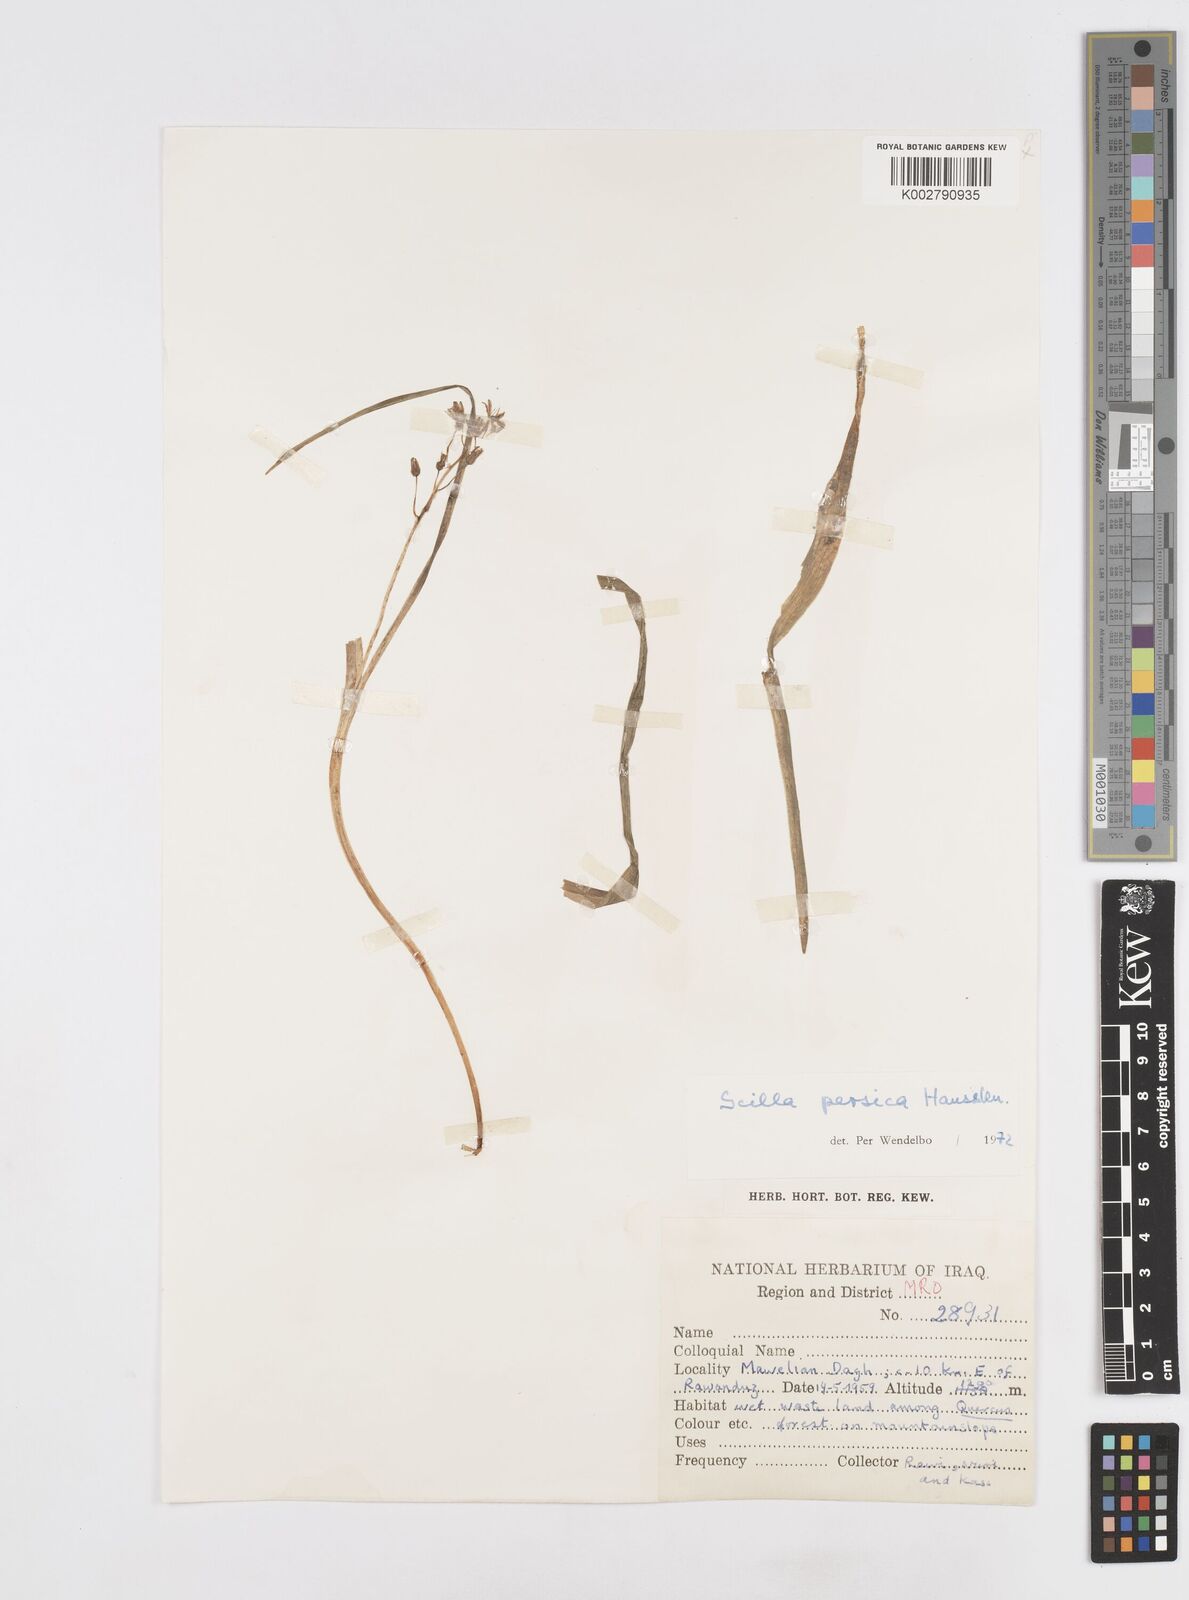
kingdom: Plantae
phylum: Tracheophyta
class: Liliopsida
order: Asparagales
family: Asparagaceae
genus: Zagrosia
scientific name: Zagrosia persica
